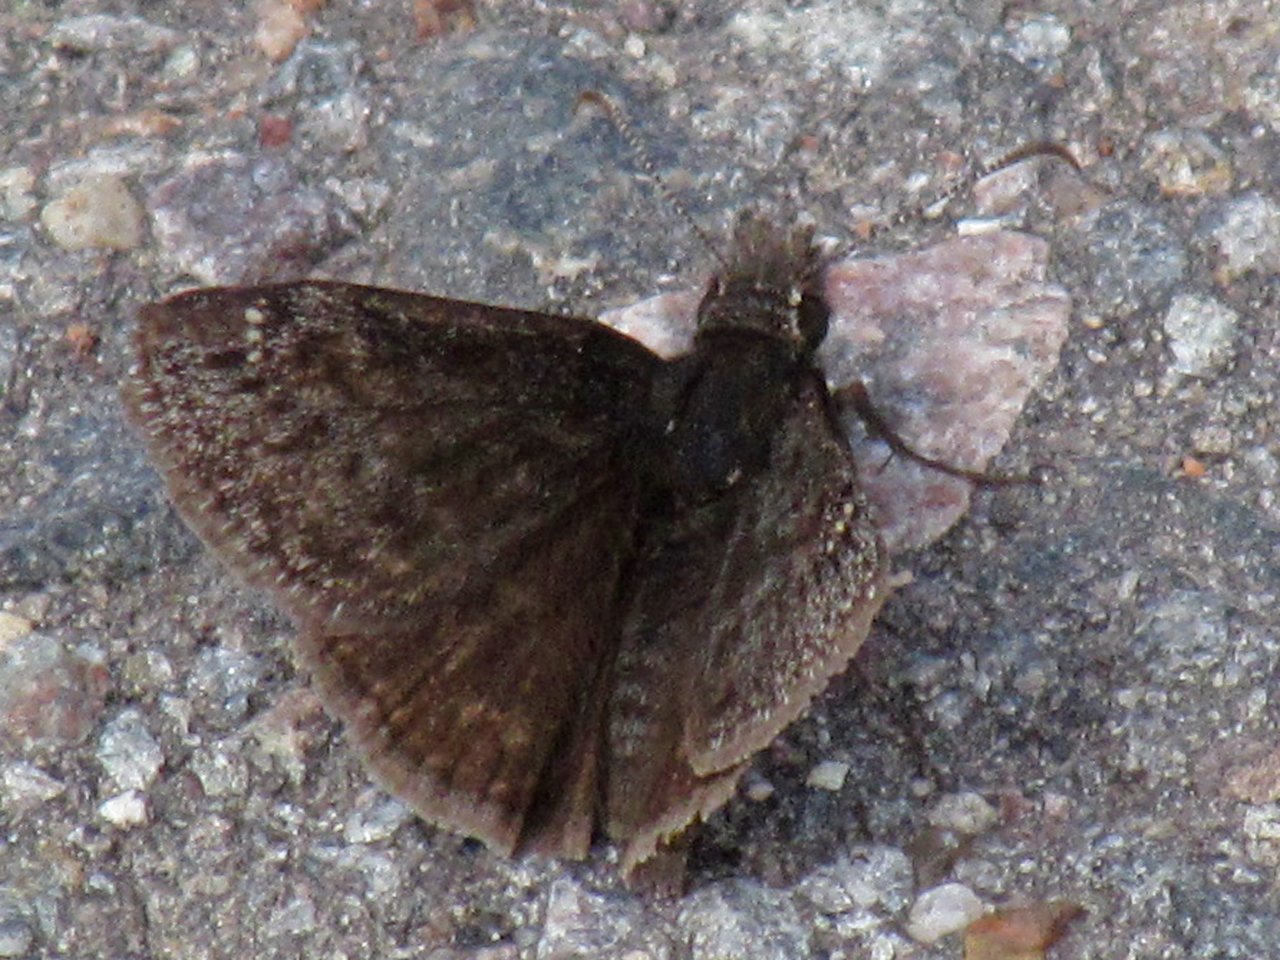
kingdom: Animalia
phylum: Arthropoda
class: Insecta
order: Lepidoptera
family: Hesperiidae
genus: Gesta
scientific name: Gesta
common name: Persius Duskywing
